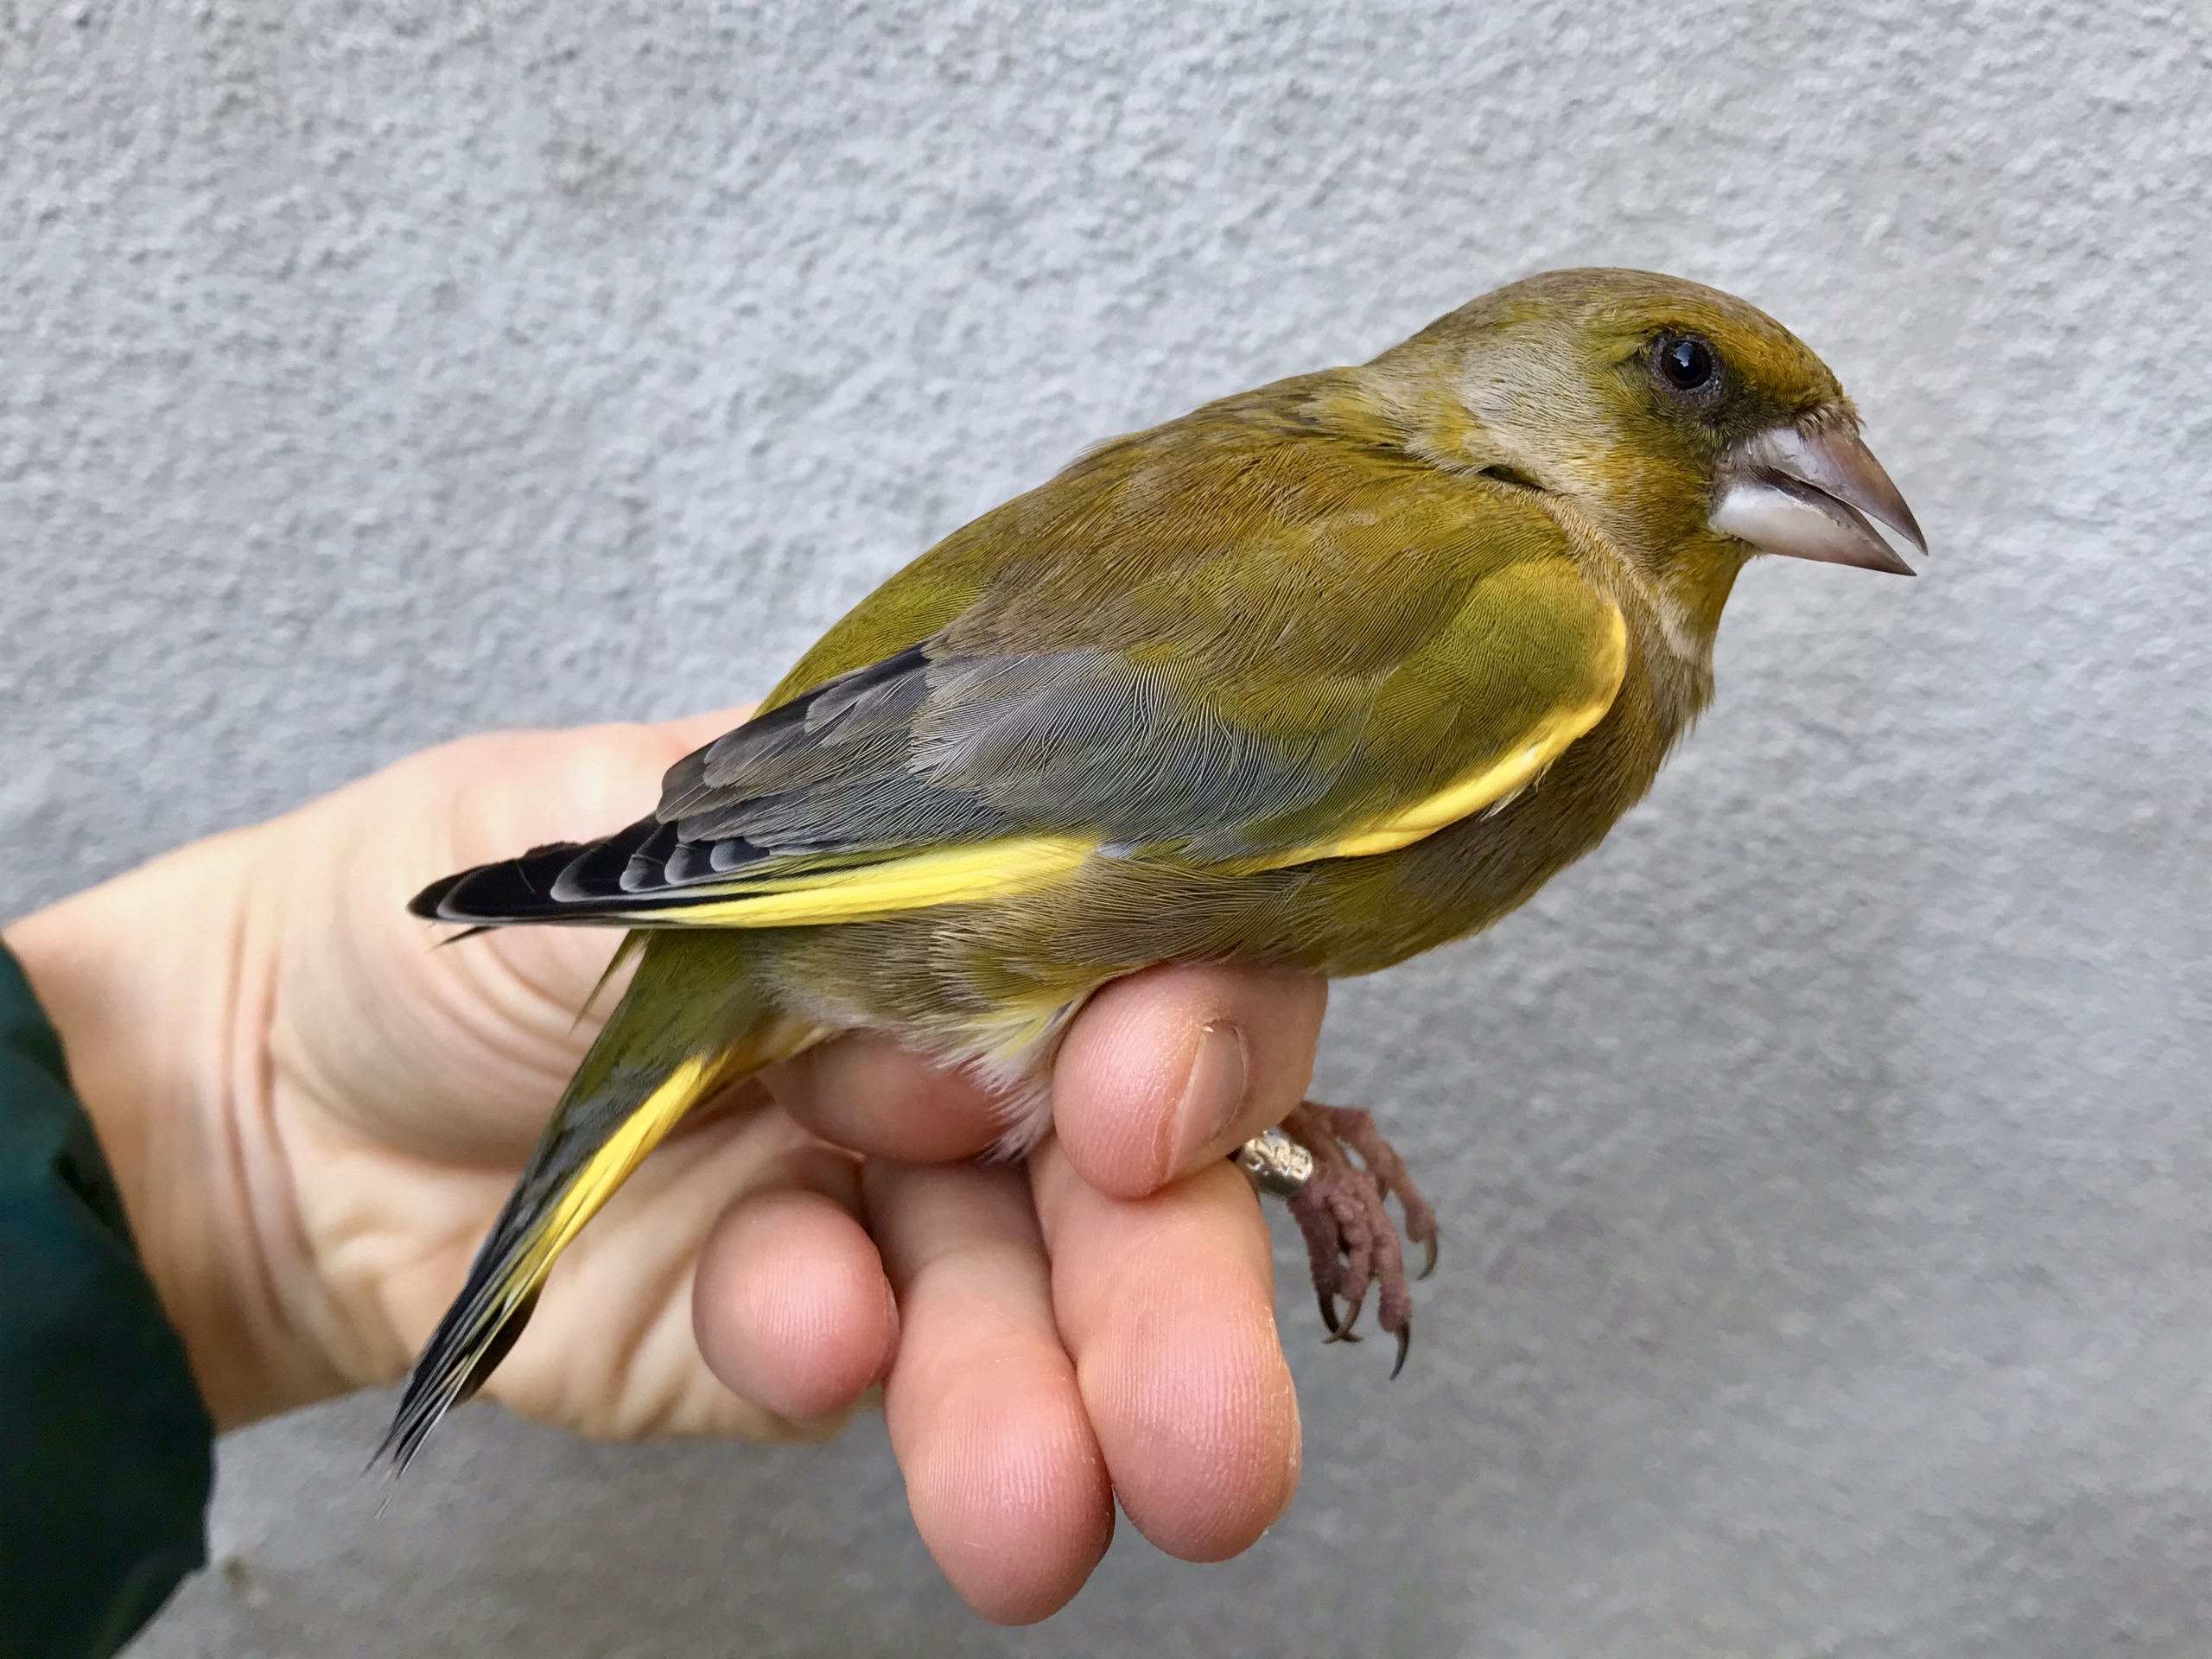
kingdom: Plantae
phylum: Tracheophyta
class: Liliopsida
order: Poales
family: Poaceae
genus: Chloris
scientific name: Chloris chloris
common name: Grønirisk
